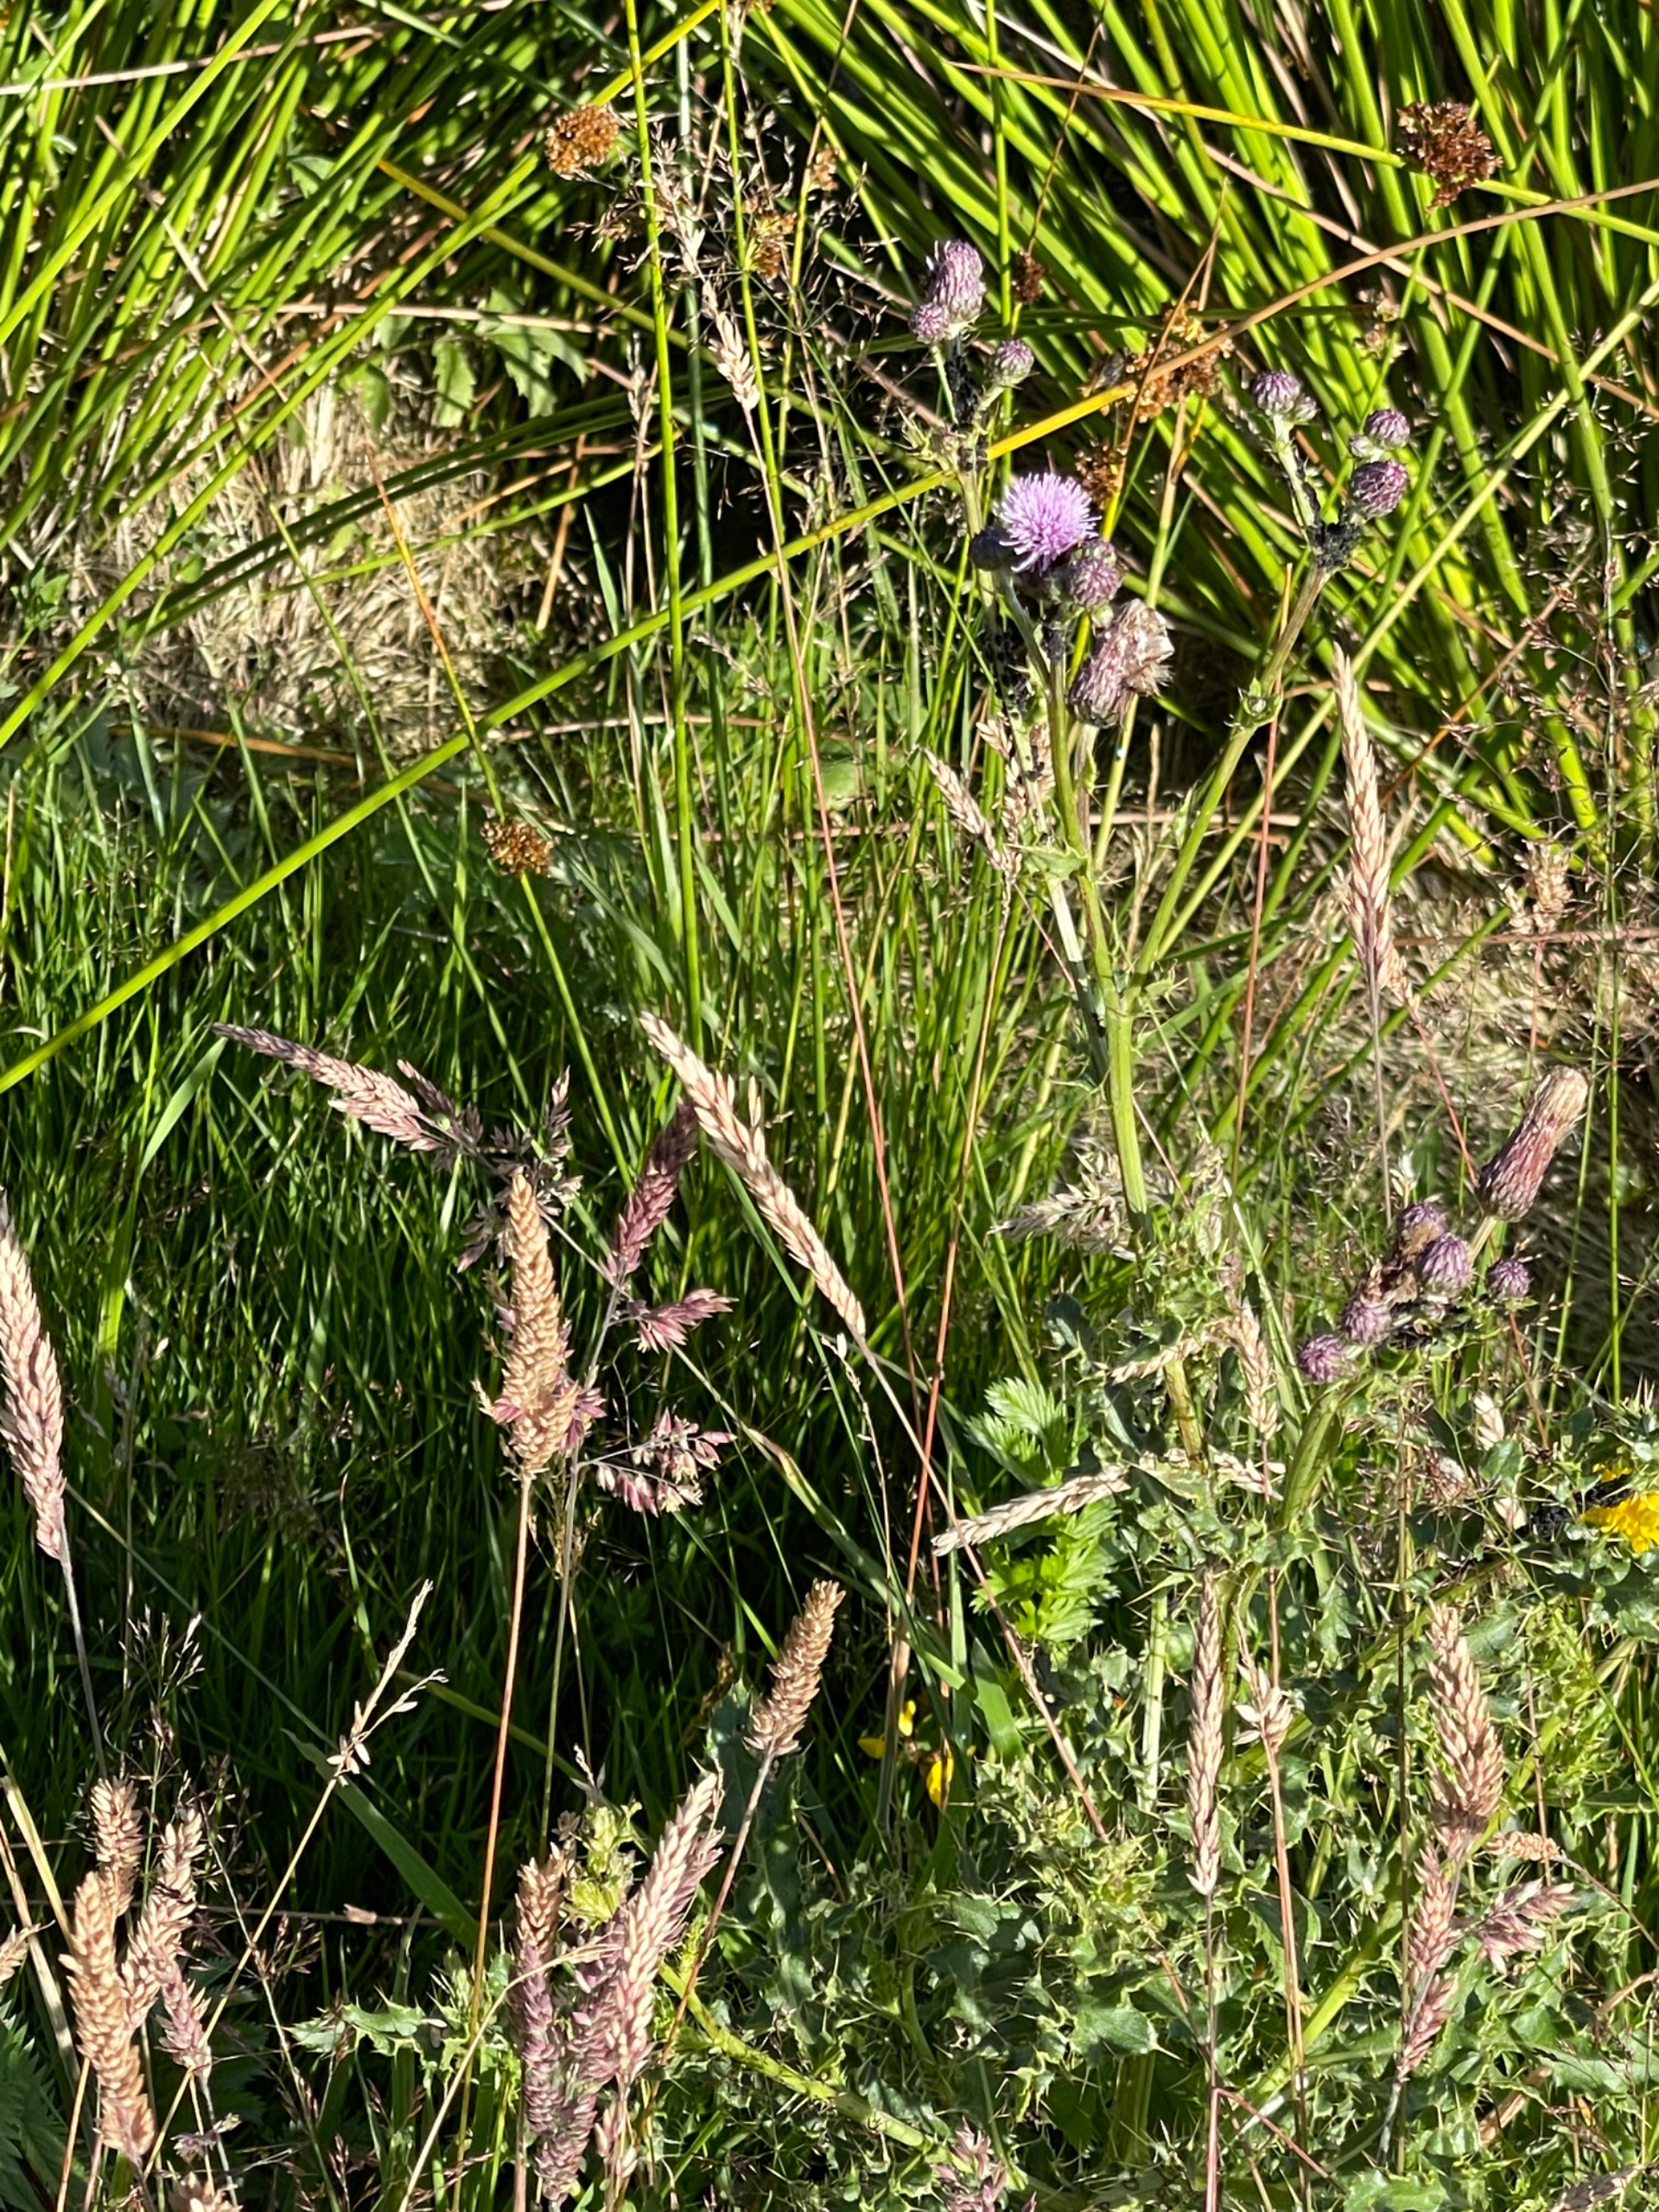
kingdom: Plantae
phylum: Tracheophyta
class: Magnoliopsida
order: Asterales
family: Asteraceae
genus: Cirsium
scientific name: Cirsium arvense
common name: Ager-tidsel
